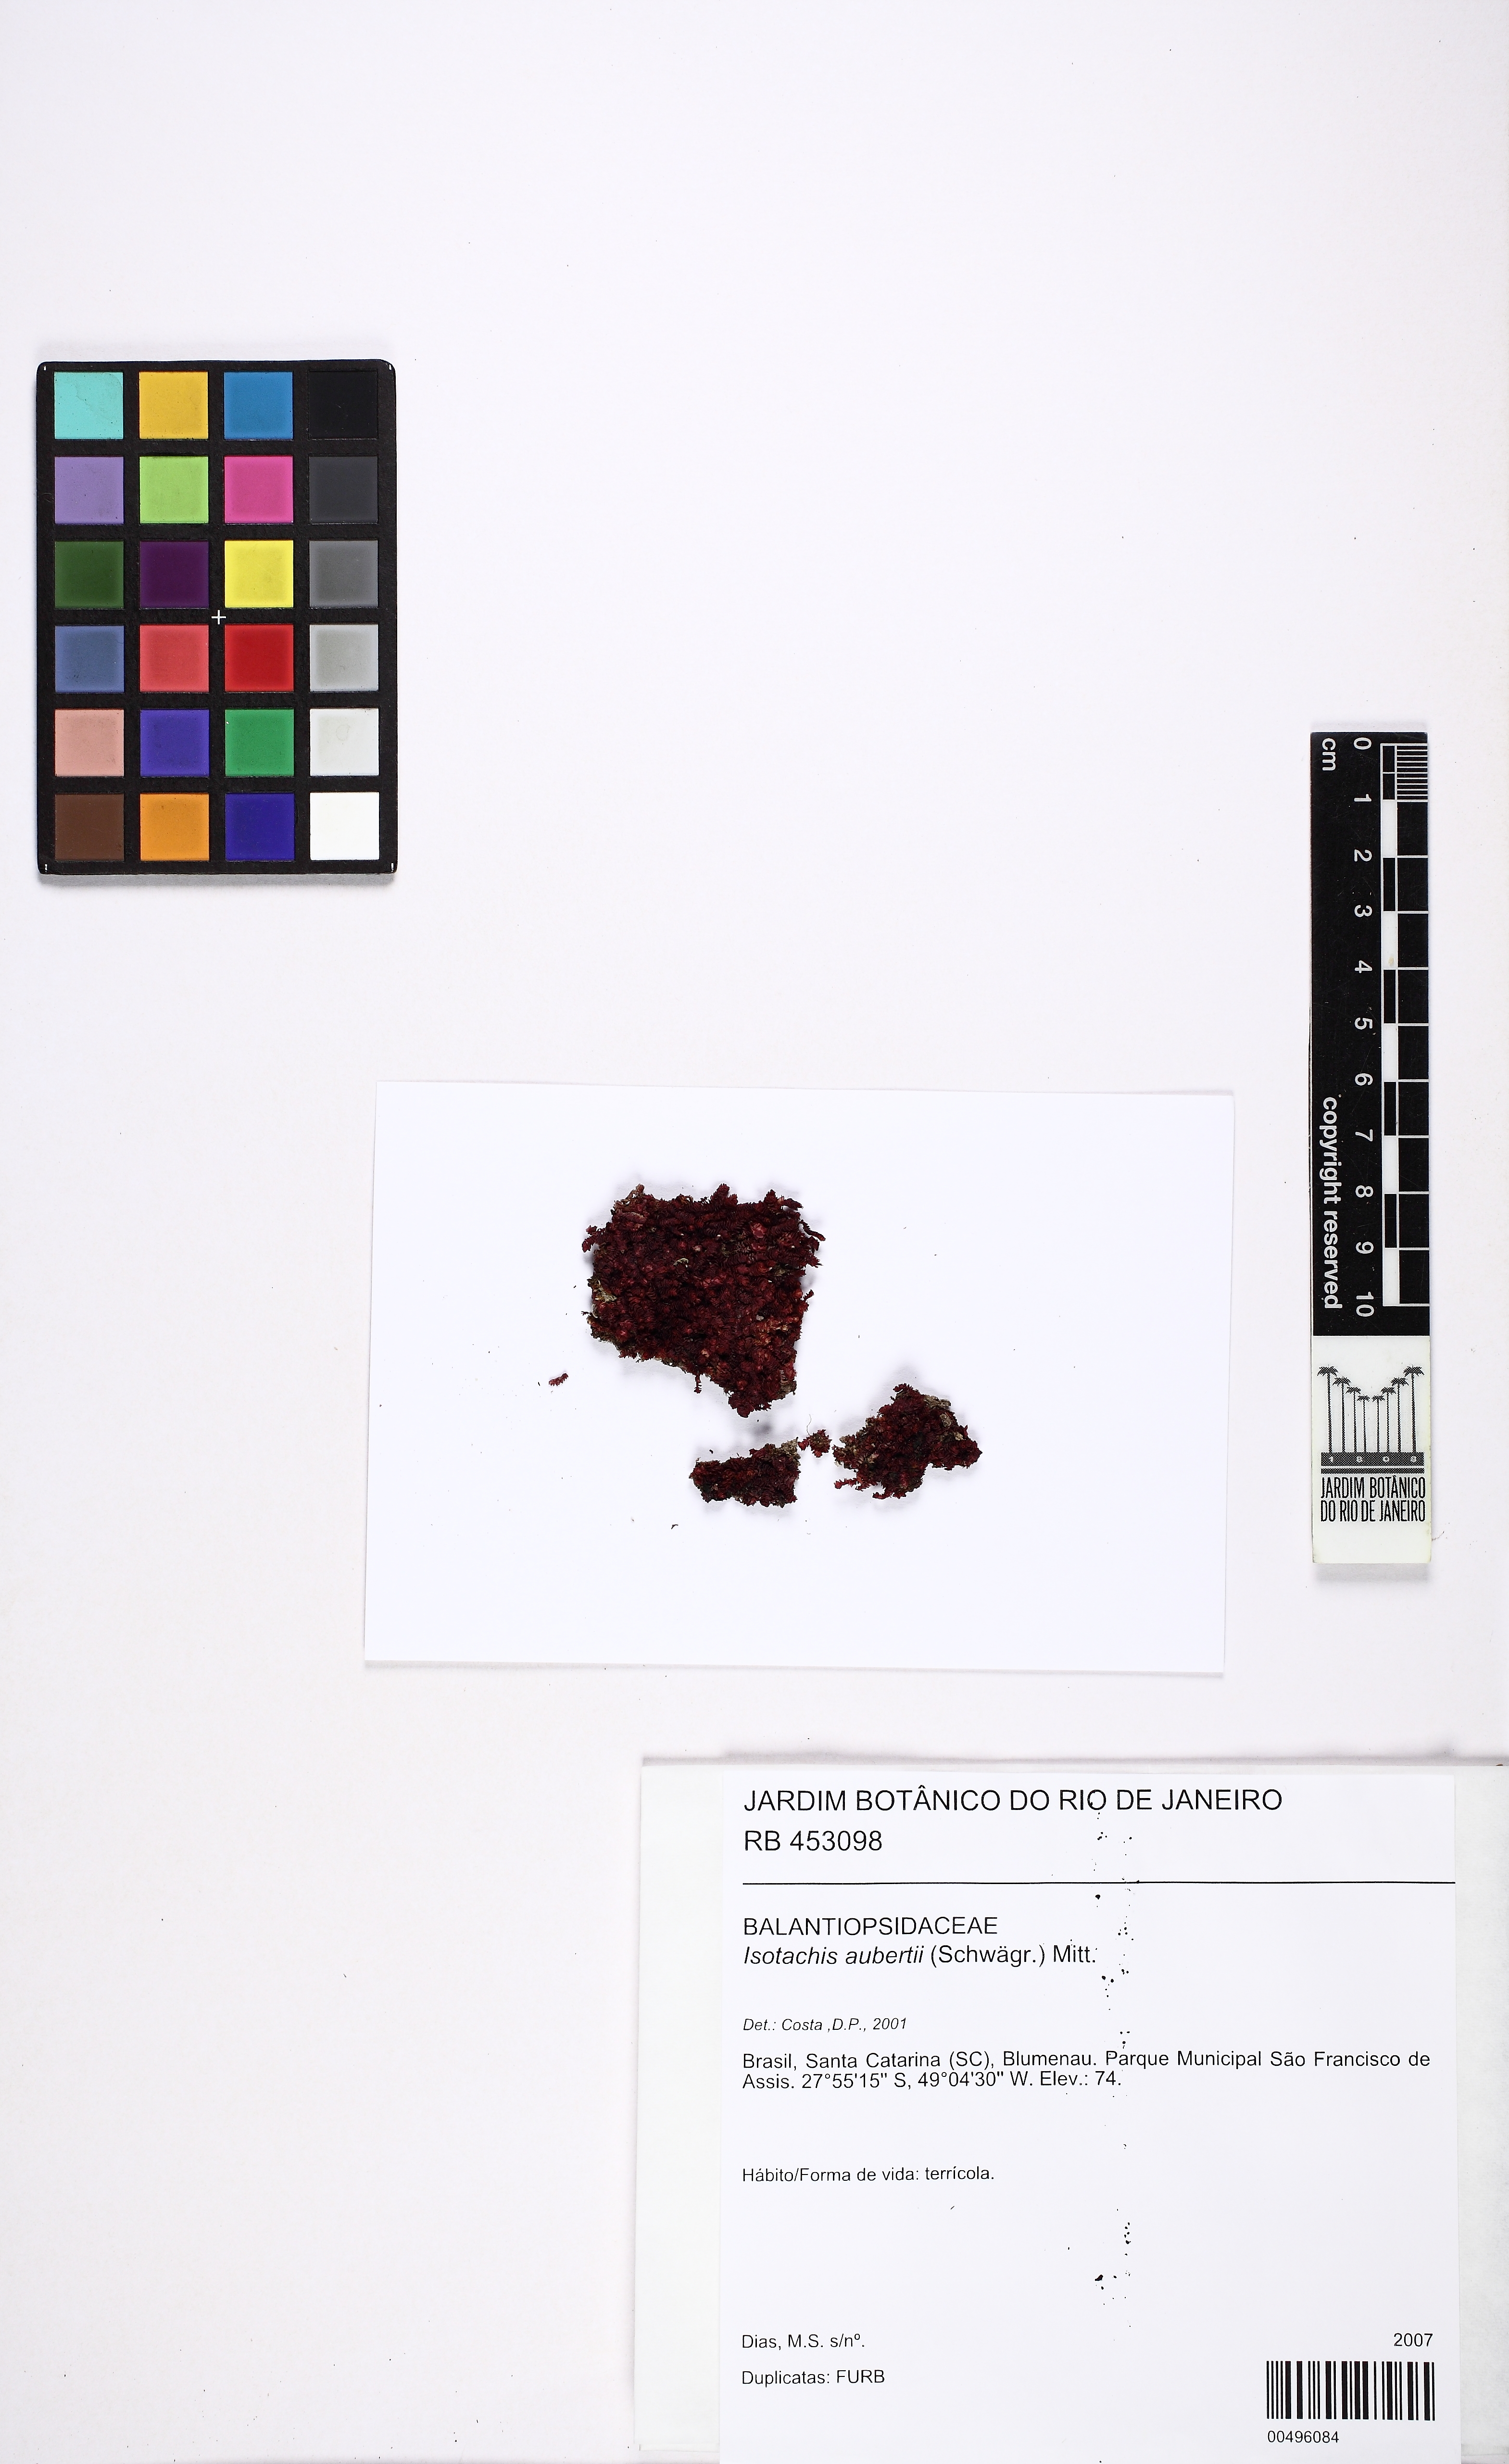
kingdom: Plantae
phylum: Marchantiophyta
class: Jungermanniopsida
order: Jungermanniales
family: Balantiopsidaceae
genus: Isotachis
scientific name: Isotachis aubertii
